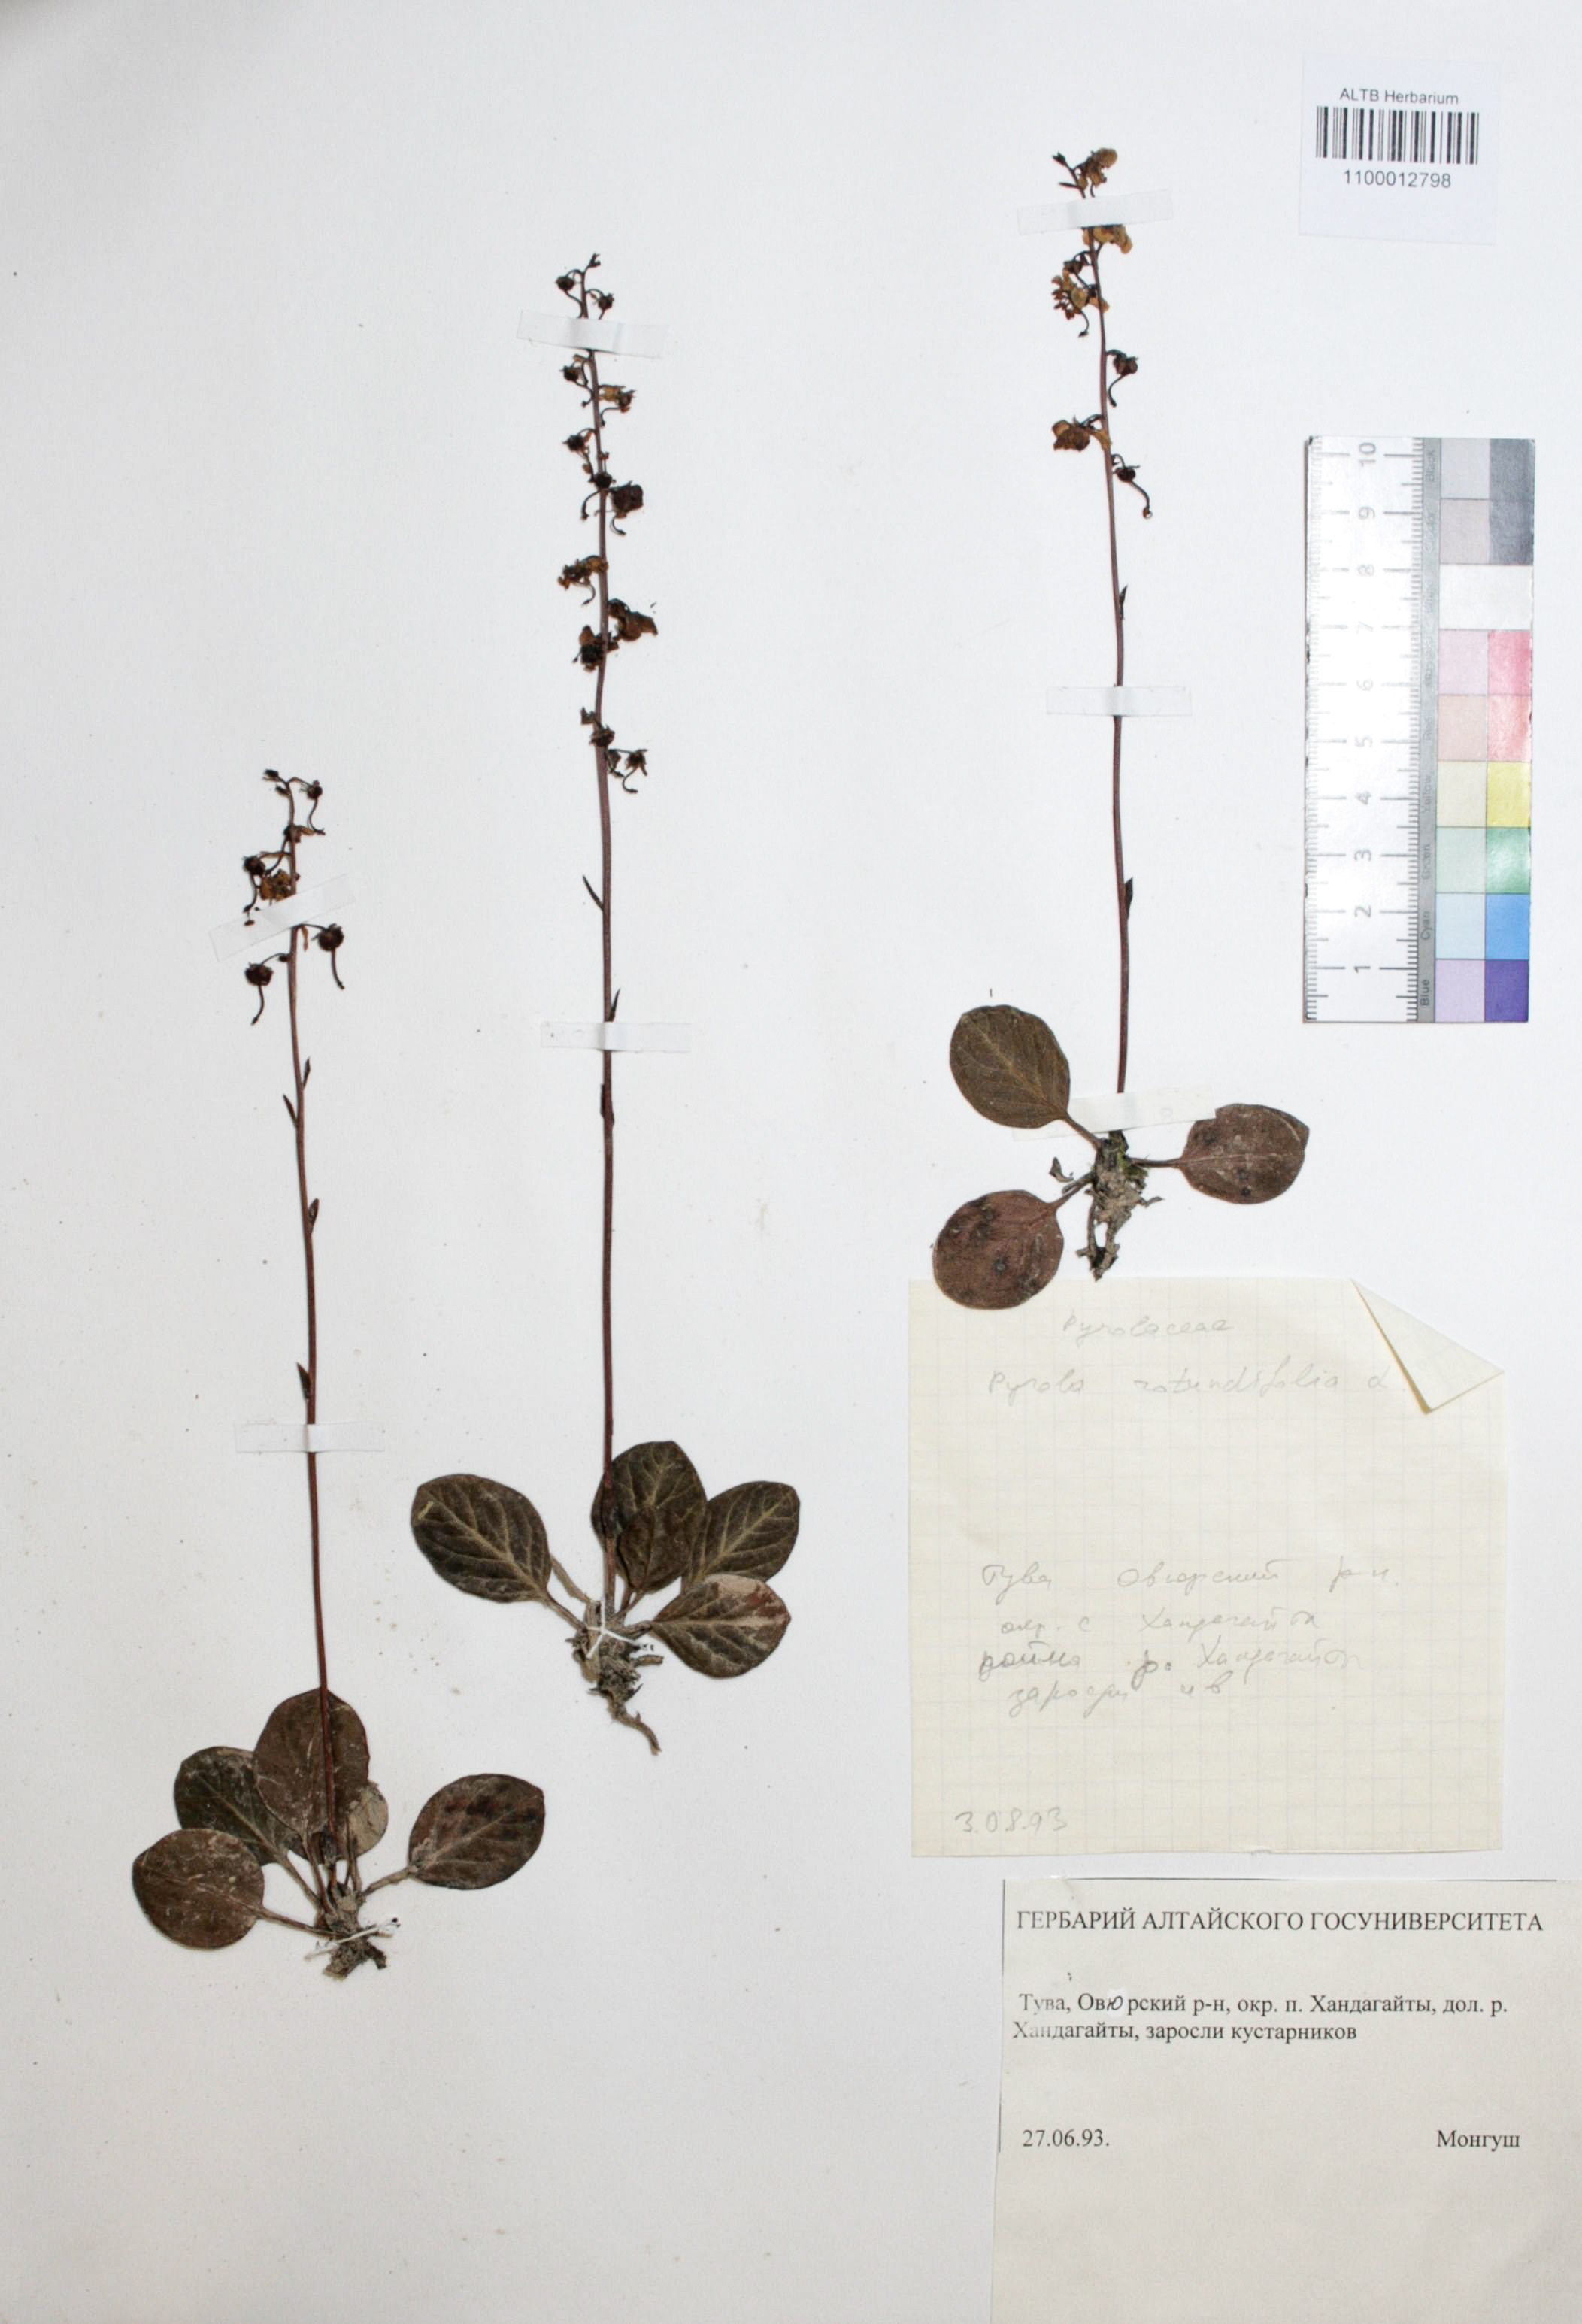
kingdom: Plantae
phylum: Tracheophyta
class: Magnoliopsida
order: Ericales
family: Ericaceae
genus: Pyrola
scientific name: Pyrola rotundifolia
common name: Round-leaved wintergreen
